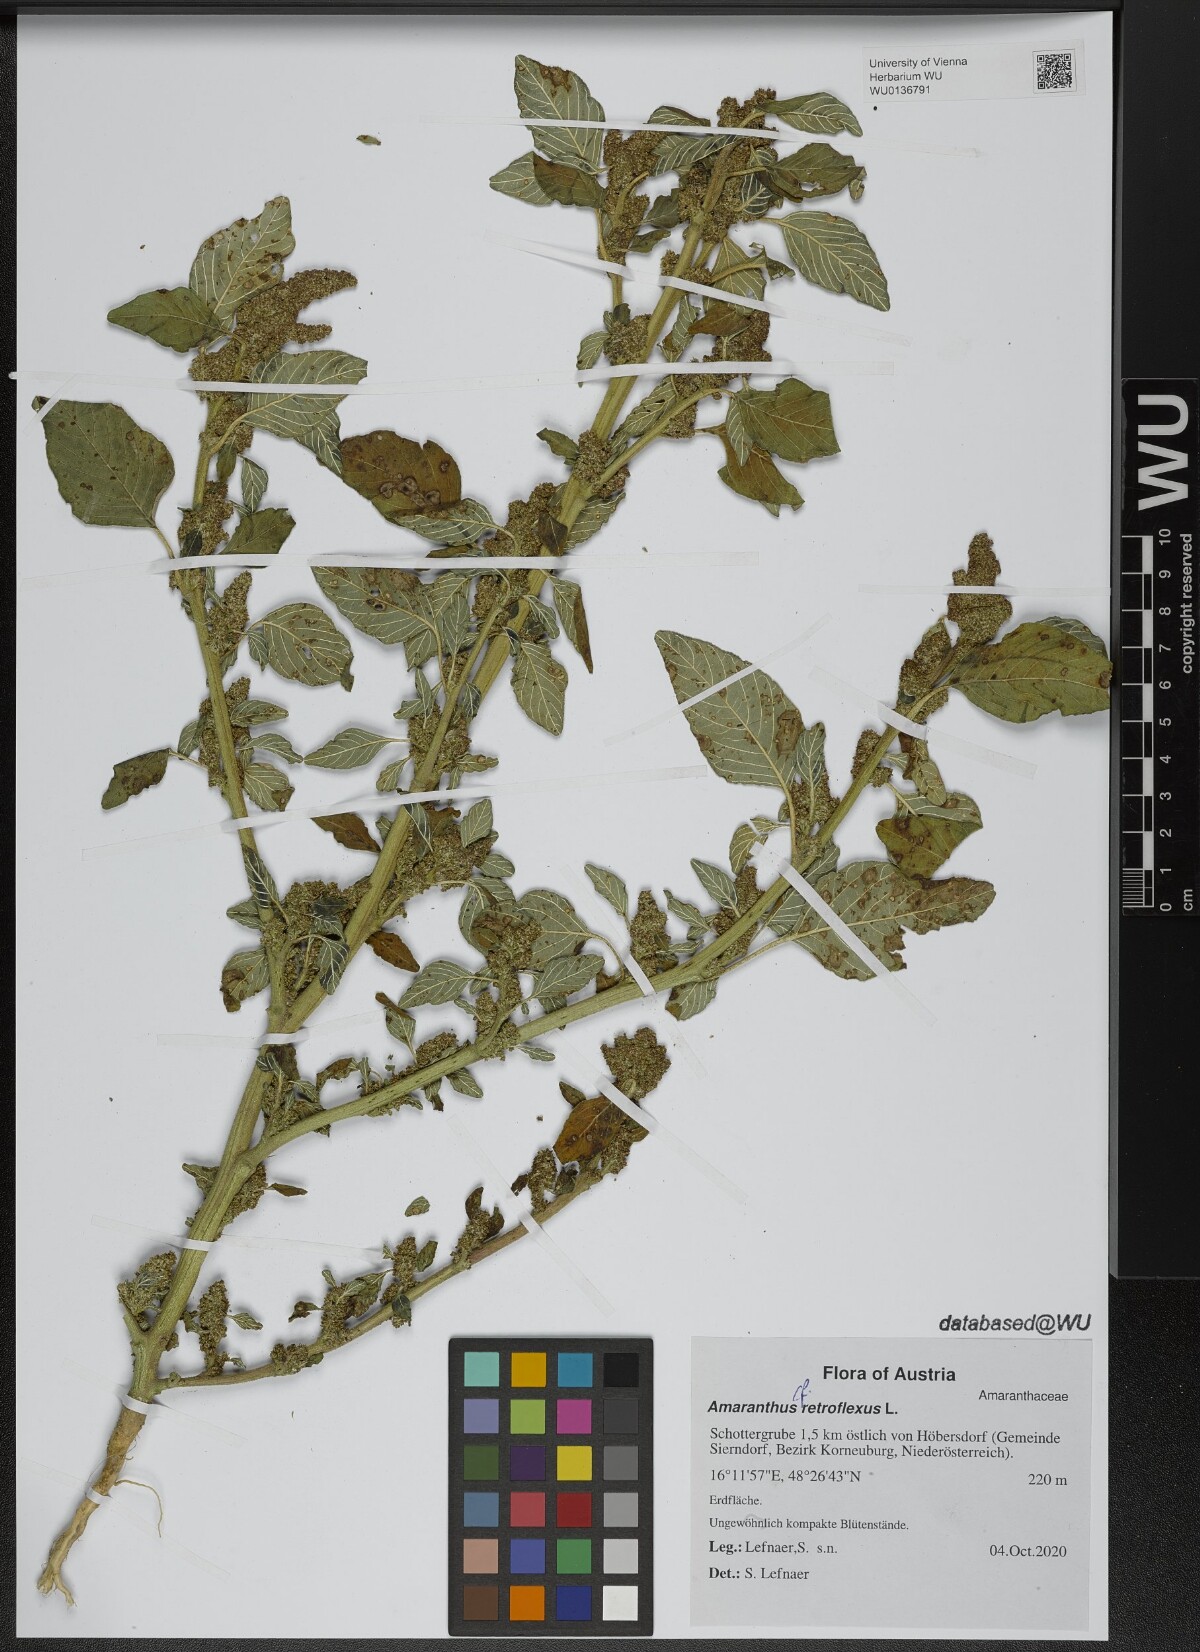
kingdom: Plantae
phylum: Tracheophyta
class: Magnoliopsida
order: Caryophyllales
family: Amaranthaceae
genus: Amaranthus
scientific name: Amaranthus retroflexus
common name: Redroot amaranth
